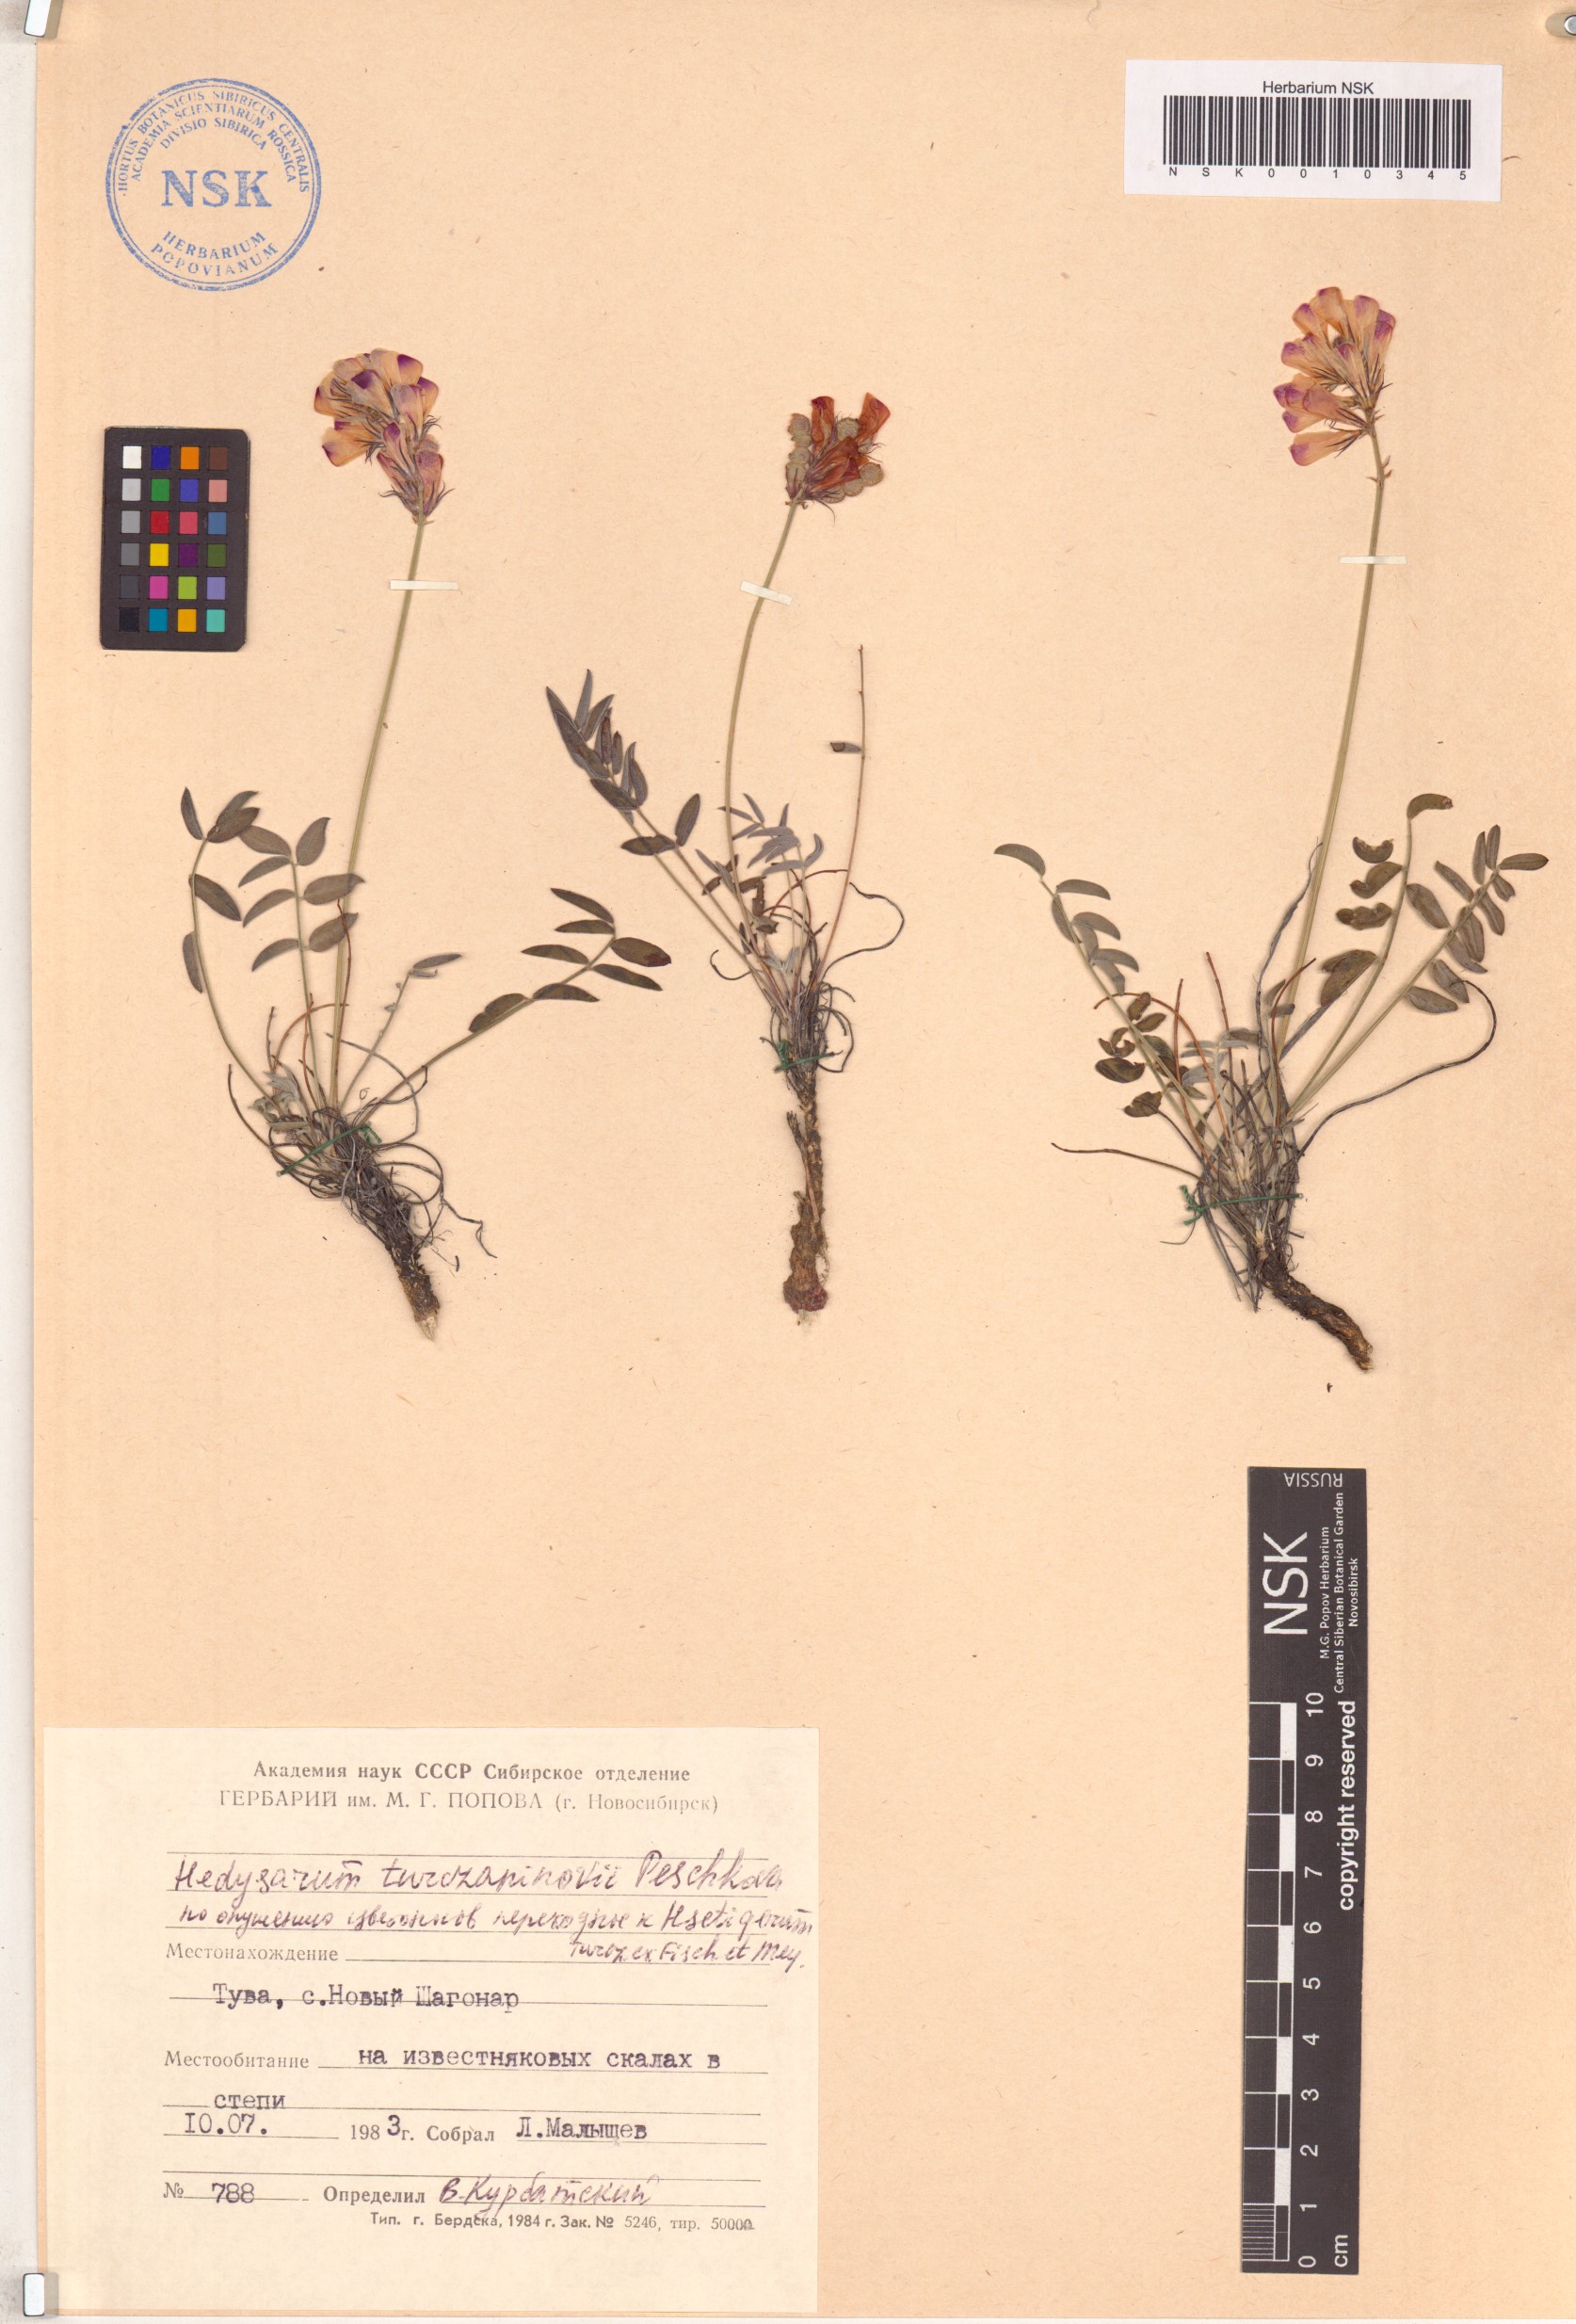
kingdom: Plantae
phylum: Tracheophyta
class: Magnoliopsida
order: Fabales
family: Fabaceae
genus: Hedysarum
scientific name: Hedysarum turczaninovii
